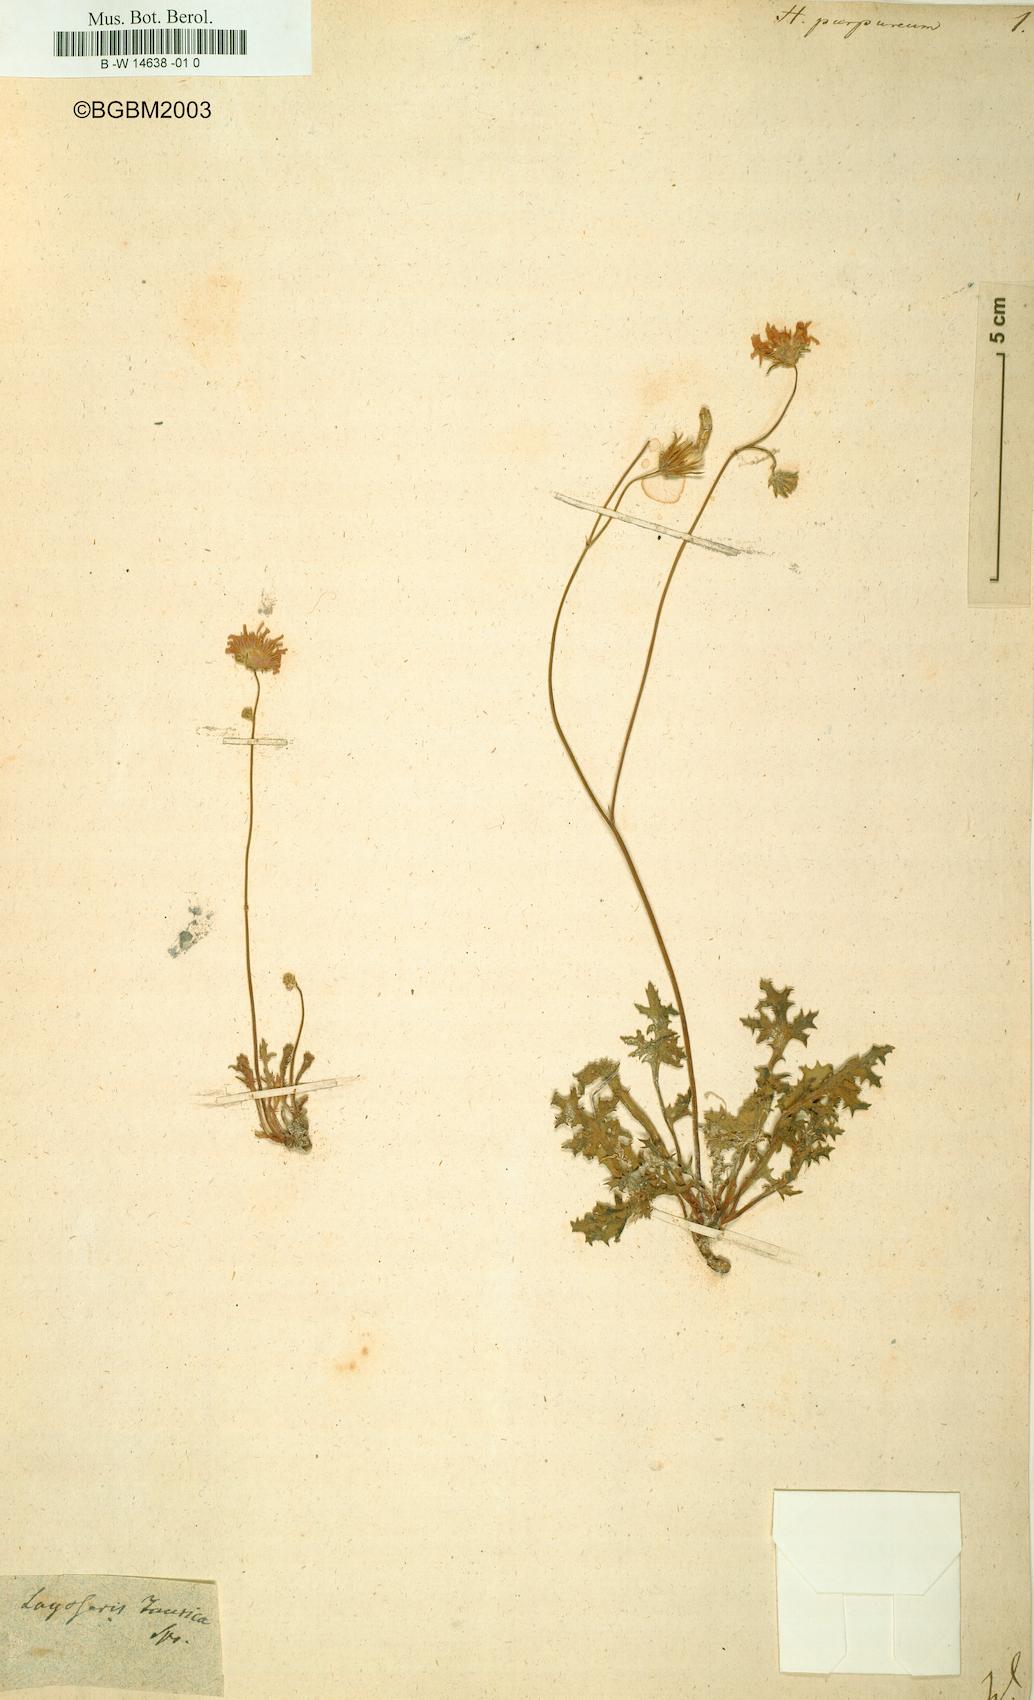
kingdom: Plantae
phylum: Tracheophyta
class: Magnoliopsida
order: Asterales
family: Asteraceae
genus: Crepis
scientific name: Crepis purpurea
